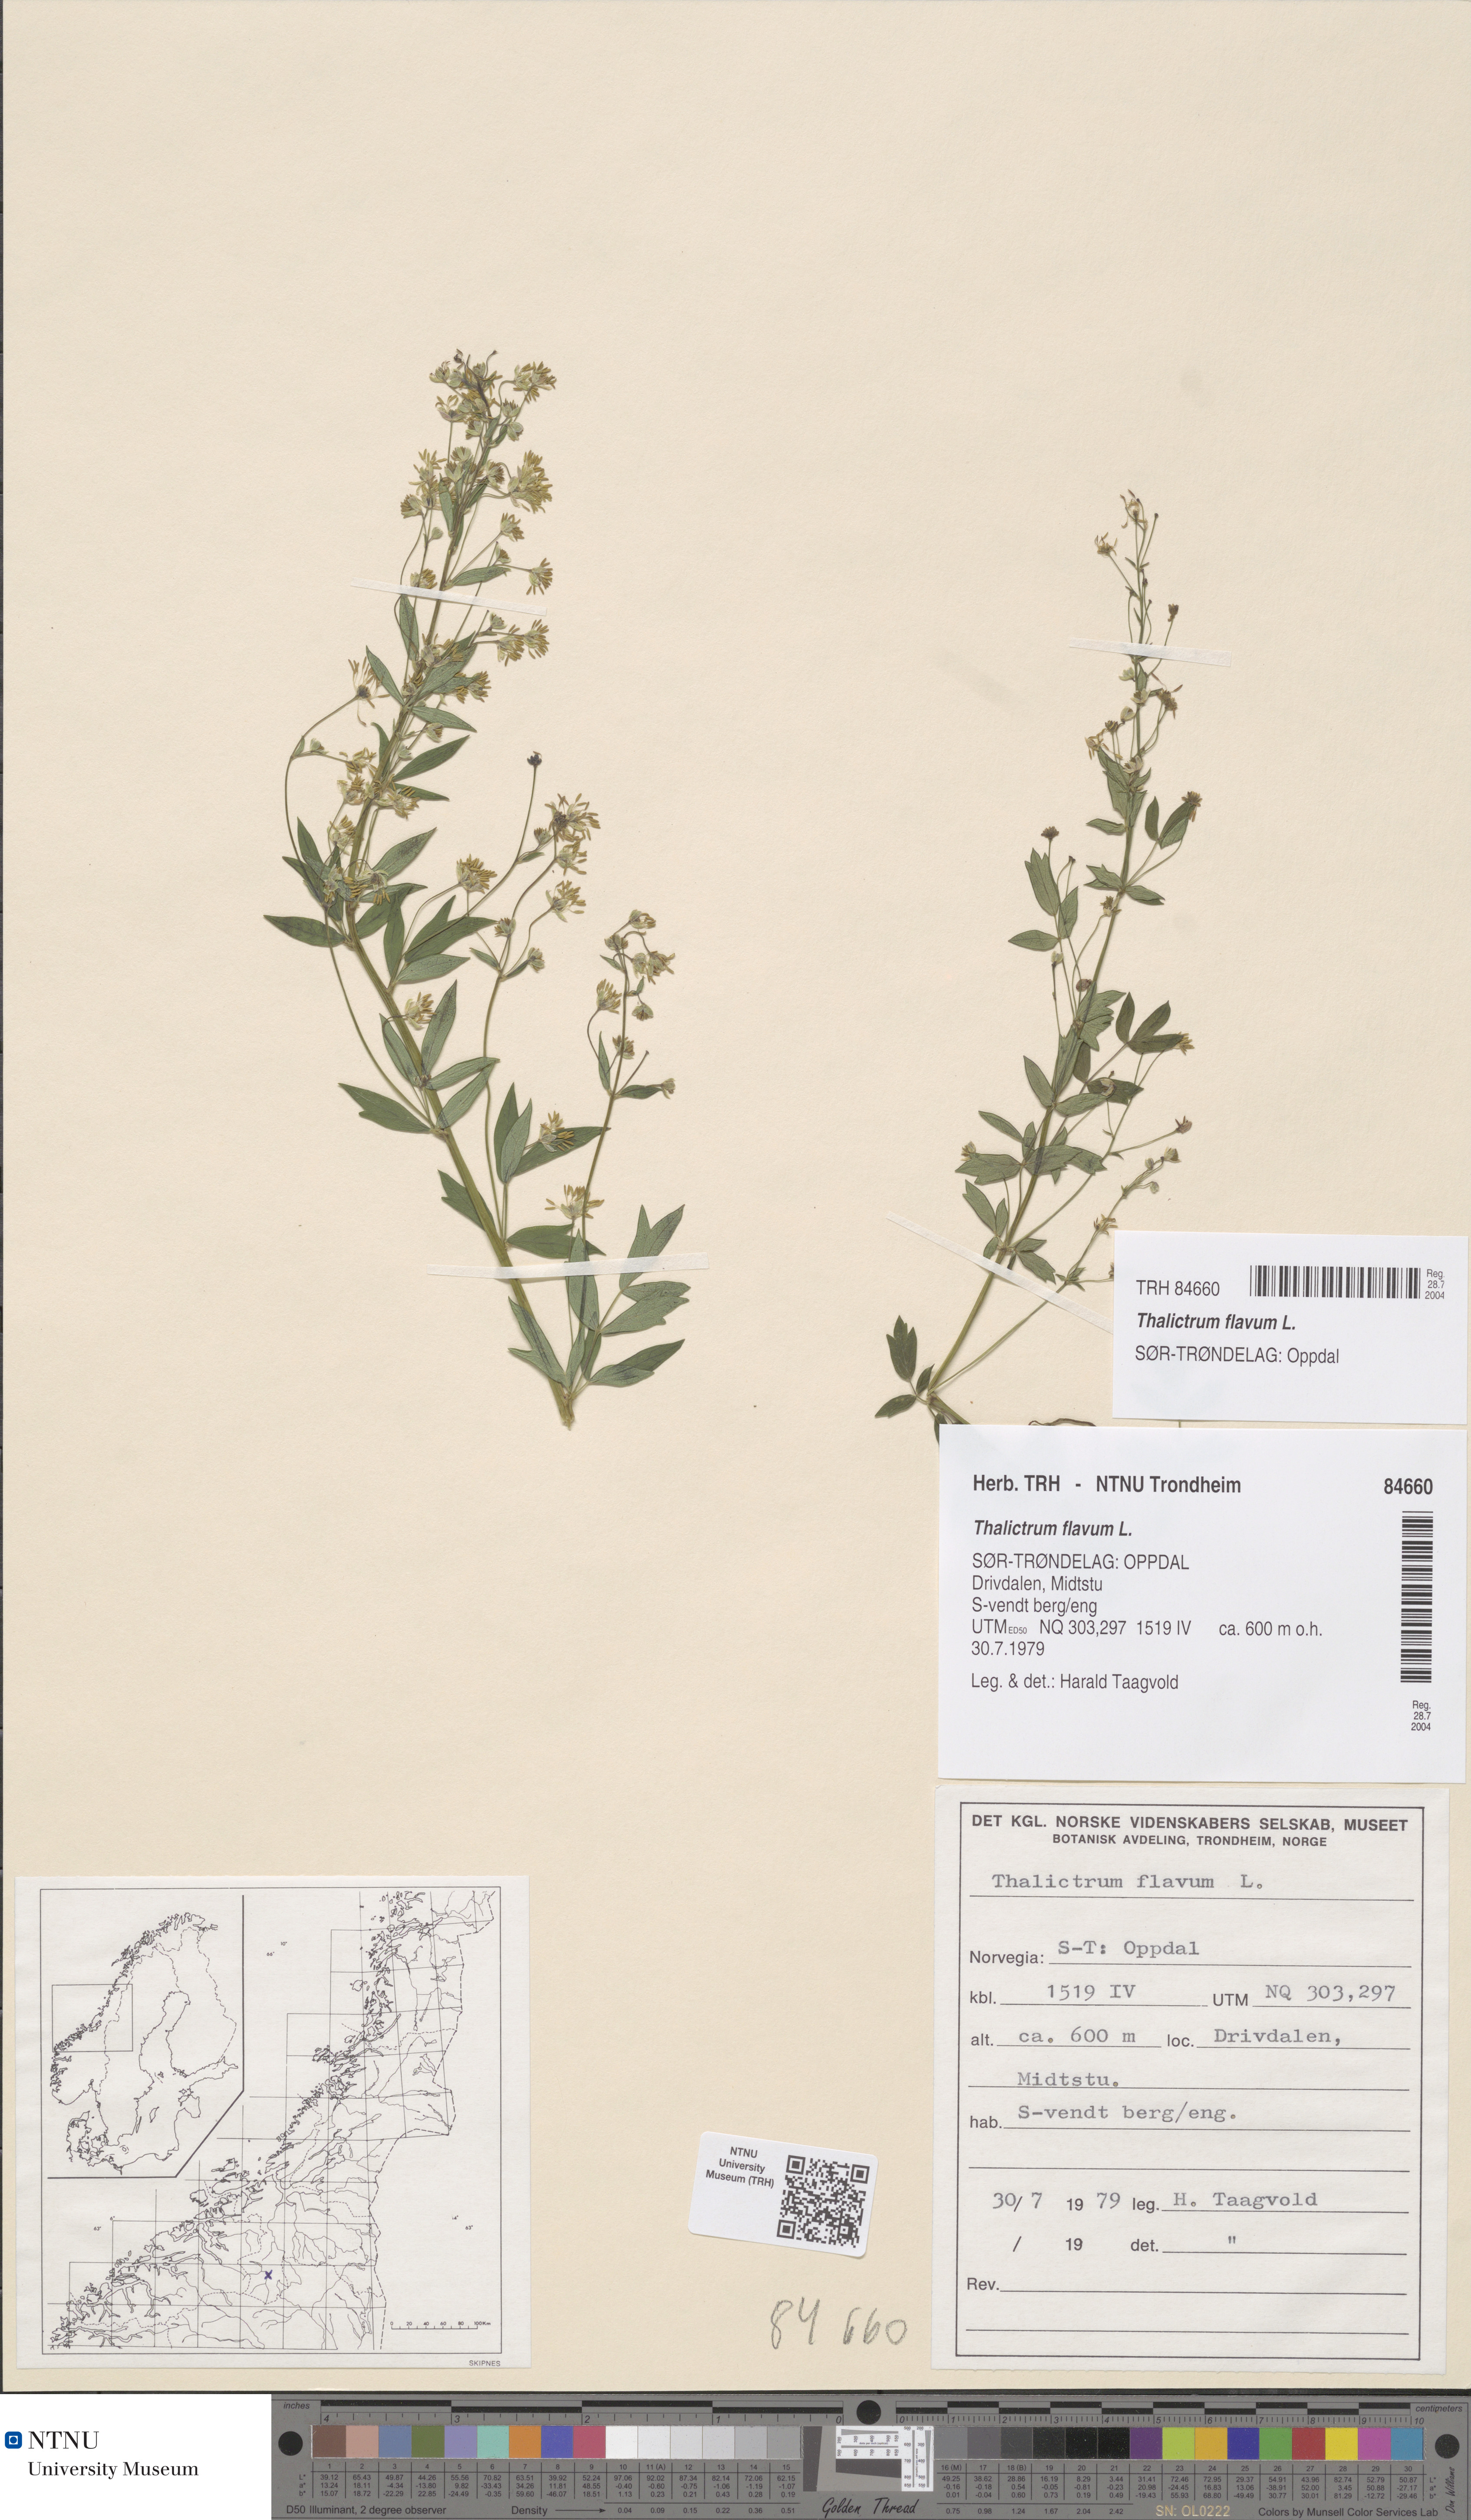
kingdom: Plantae
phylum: Tracheophyta
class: Magnoliopsida
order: Ranunculales
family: Ranunculaceae
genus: Thalictrum
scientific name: Thalictrum flavum
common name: Common meadow-rue
